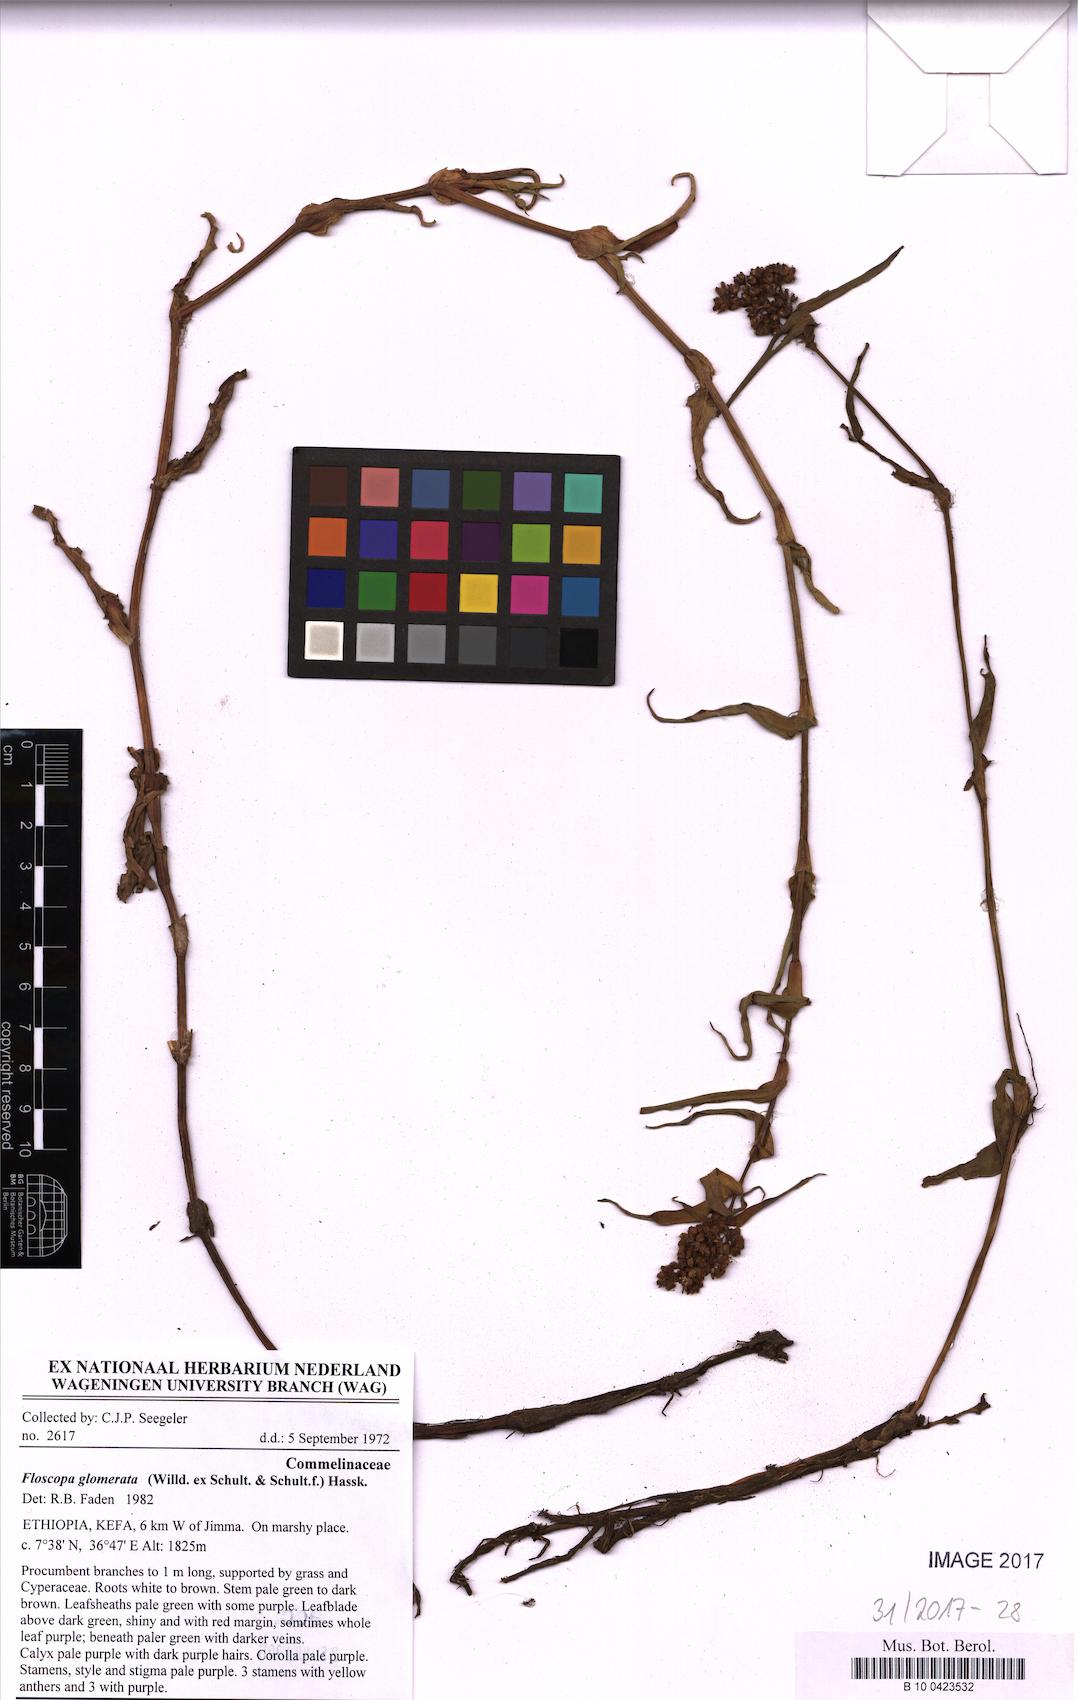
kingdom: Plantae
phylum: Tracheophyta
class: Liliopsida
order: Commelinales
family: Commelinaceae
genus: Floscopa
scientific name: Floscopa glomerata
